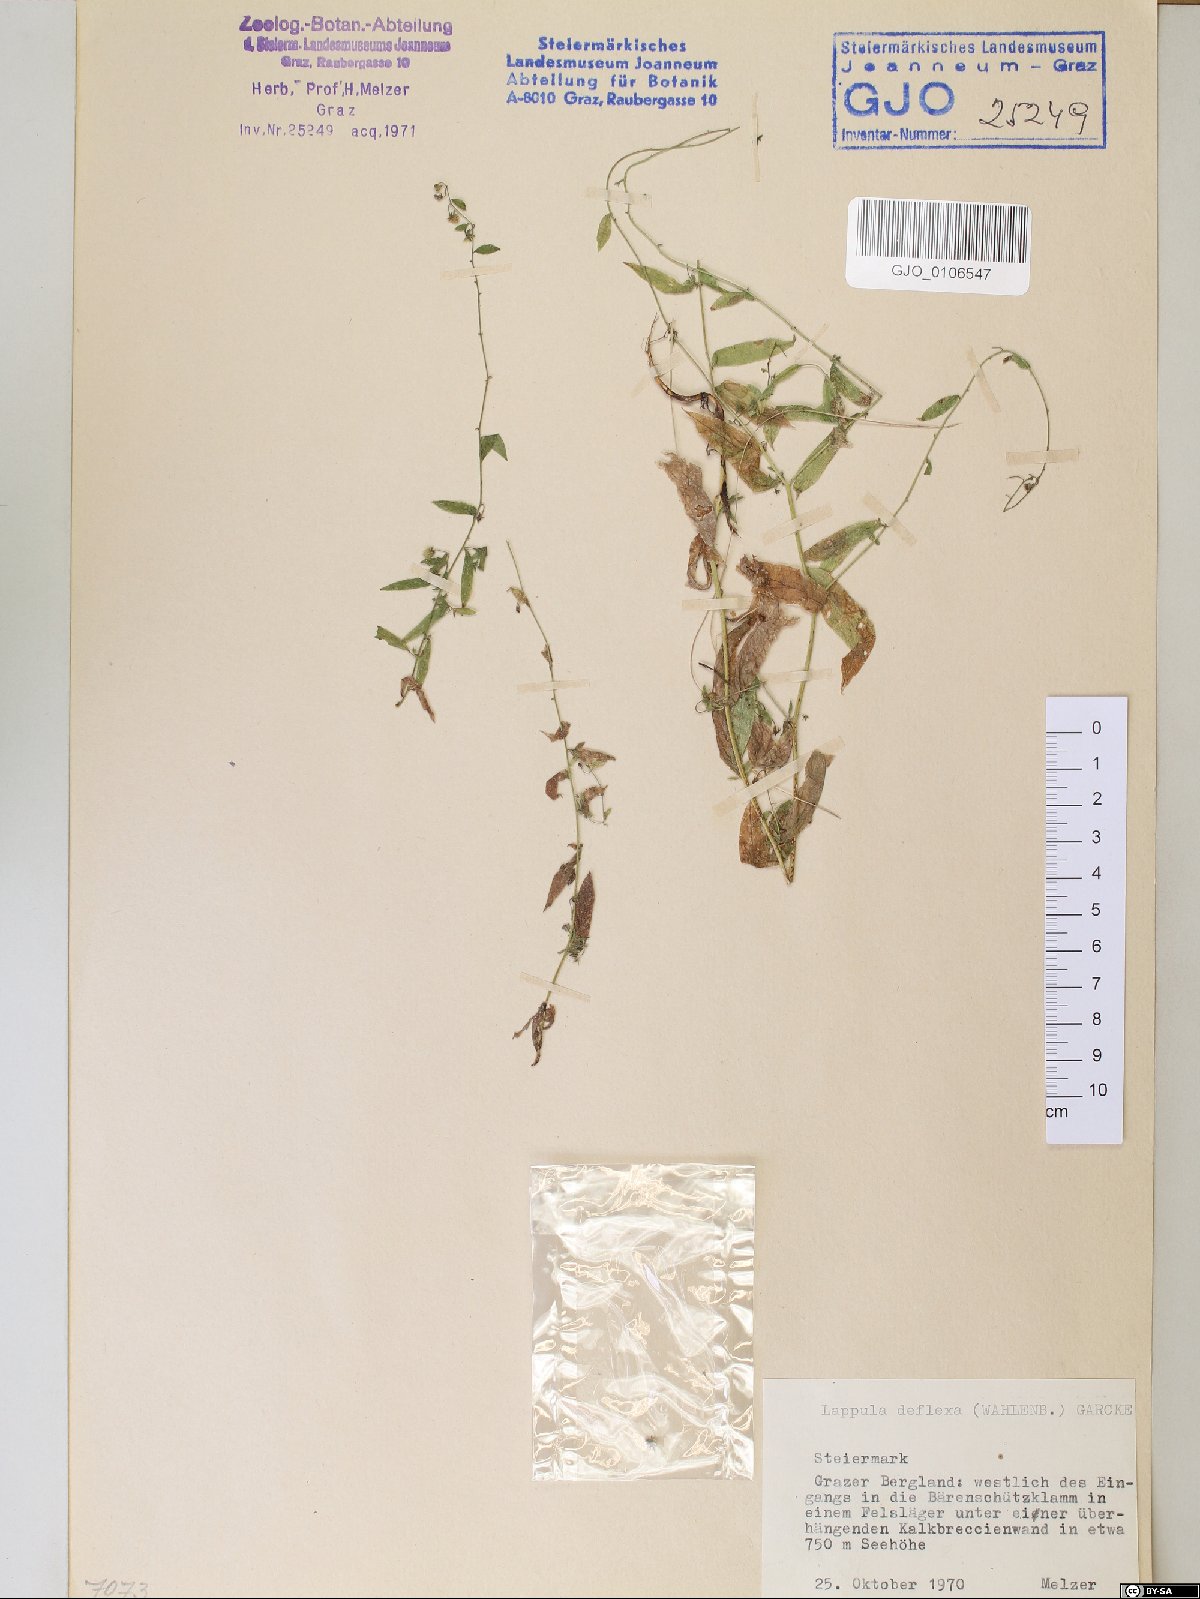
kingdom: Plantae
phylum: Tracheophyta
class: Magnoliopsida
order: Boraginales
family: Boraginaceae
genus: Hackelia
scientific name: Hackelia deflexa
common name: Nodding stickseed
